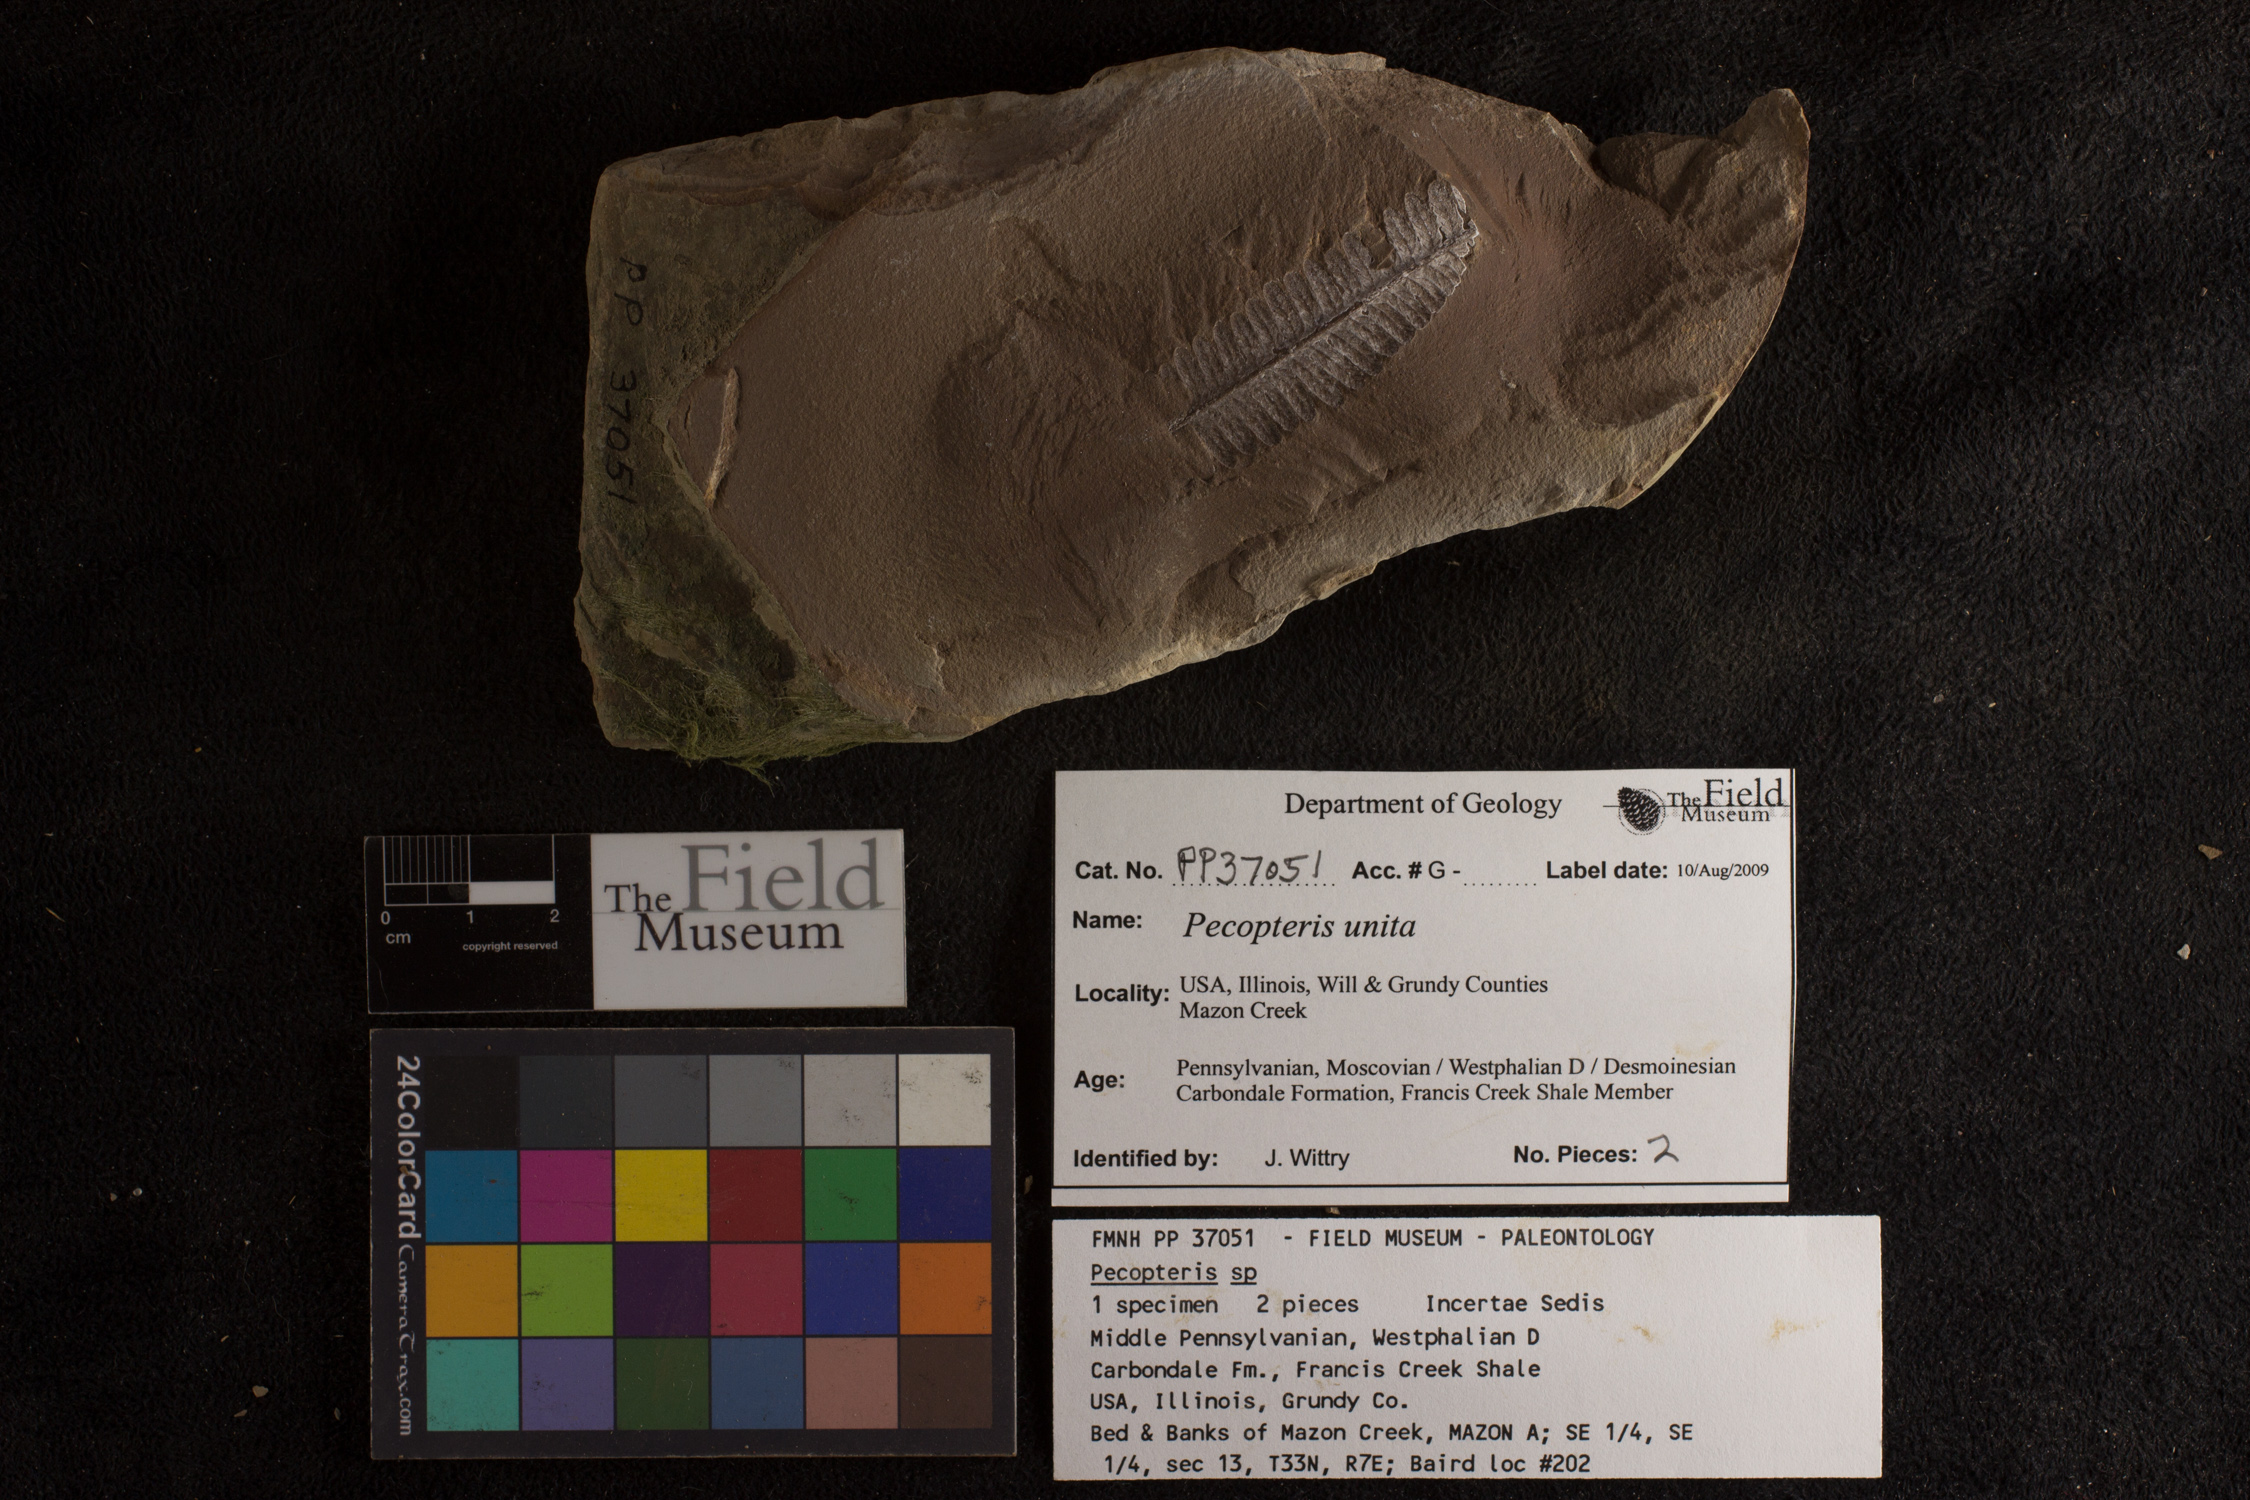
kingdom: Plantae
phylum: Tracheophyta
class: Polypodiopsida
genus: Diplazites
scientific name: Diplazites
